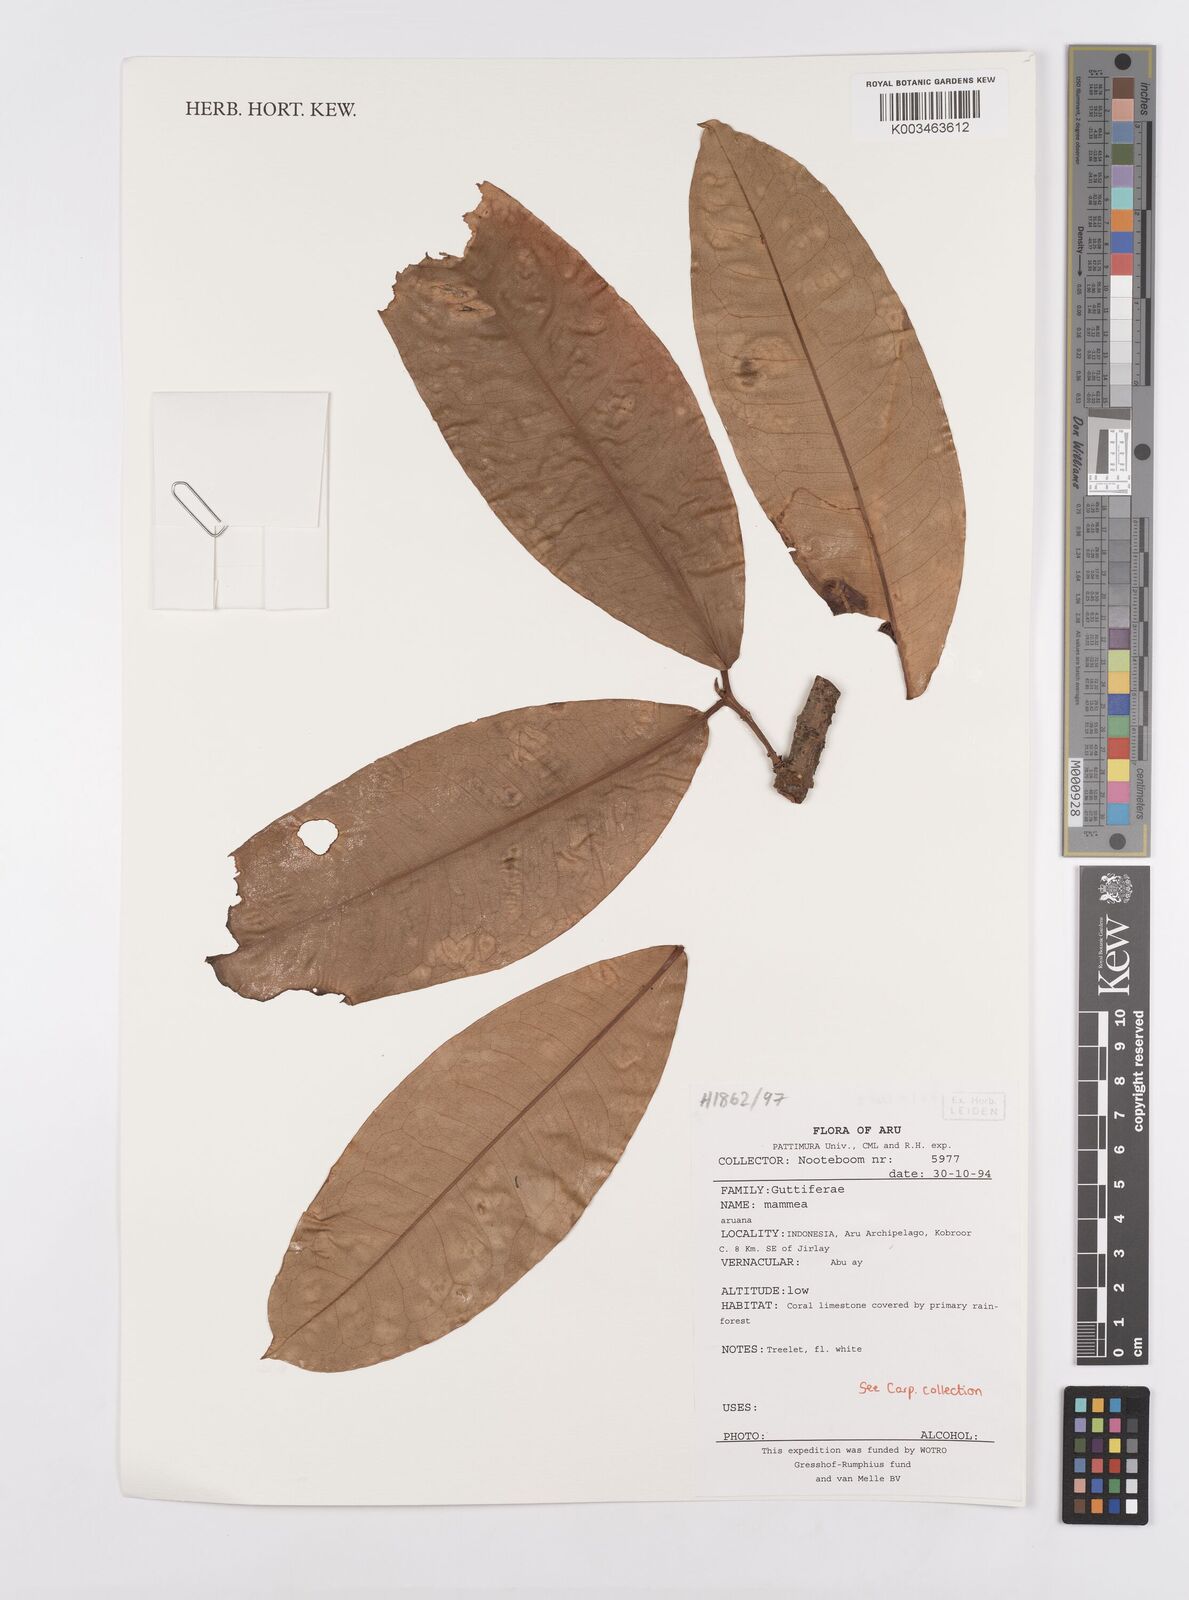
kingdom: Plantae
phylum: Tracheophyta
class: Magnoliopsida
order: Malpighiales
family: Calophyllaceae
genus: Mammea
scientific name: Mammea
